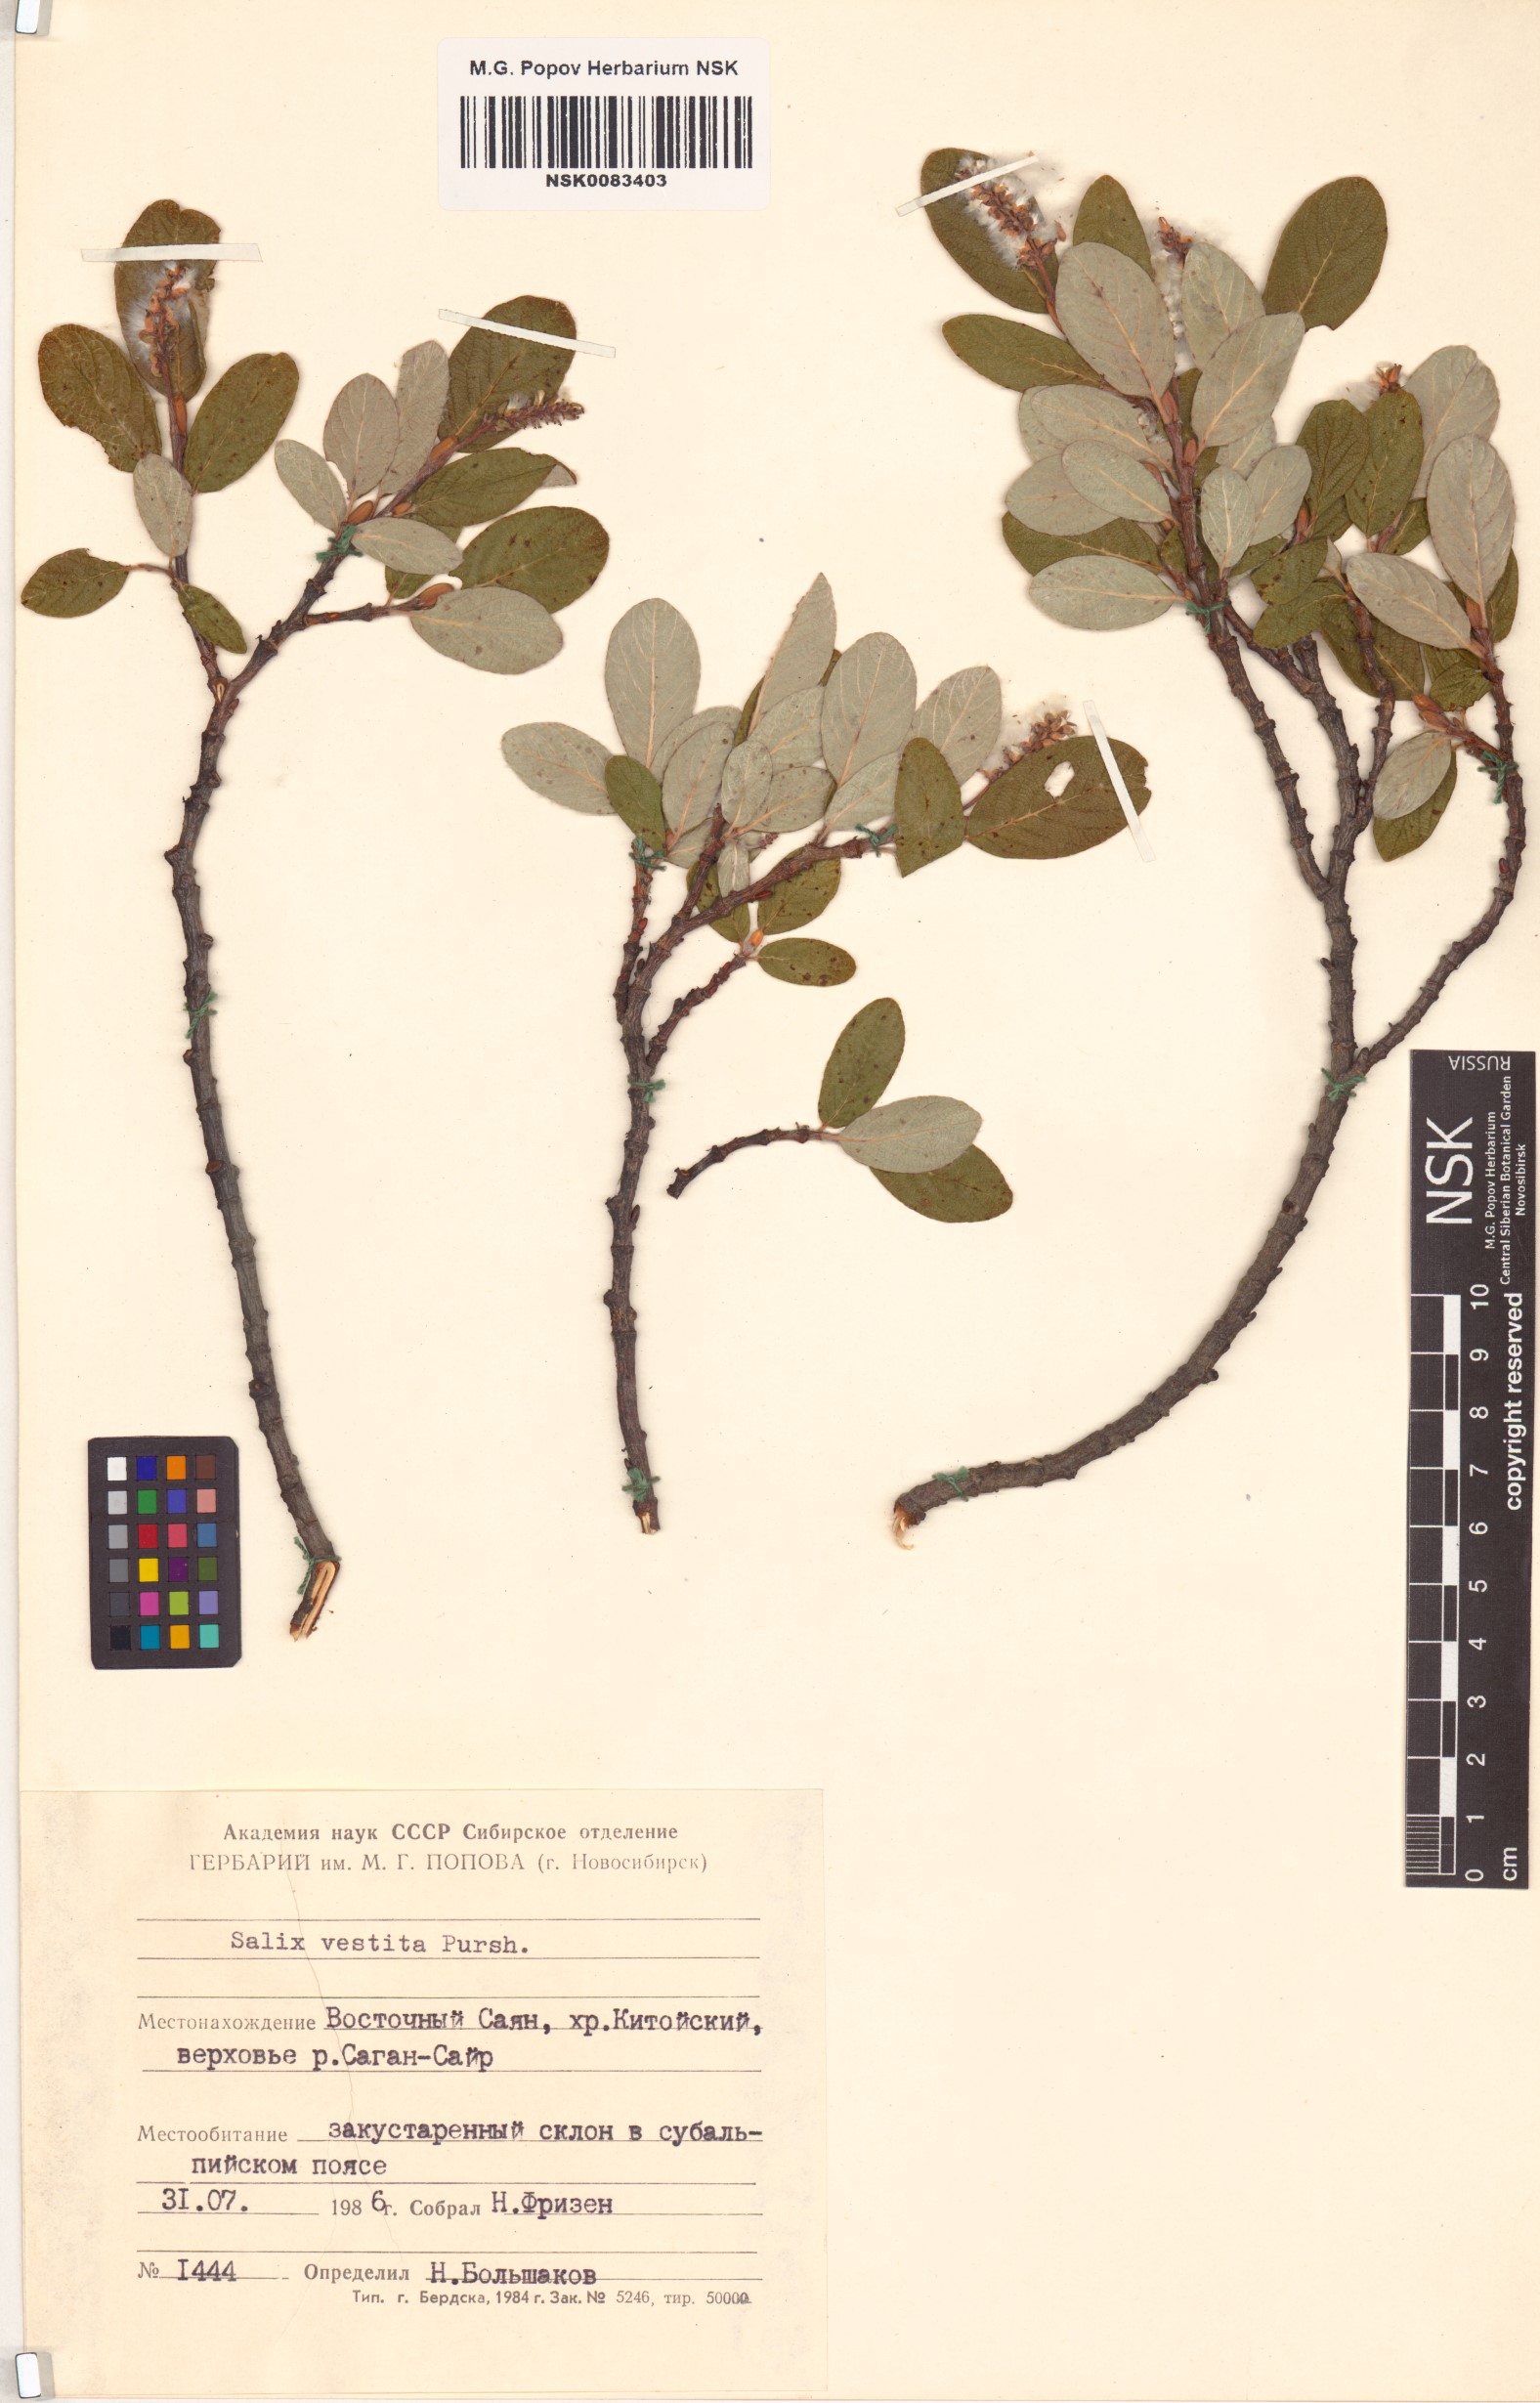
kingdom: Plantae
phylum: Tracheophyta
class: Magnoliopsida
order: Malpighiales
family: Salicaceae
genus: Salix
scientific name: Salix vestita
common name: Hairy willow
